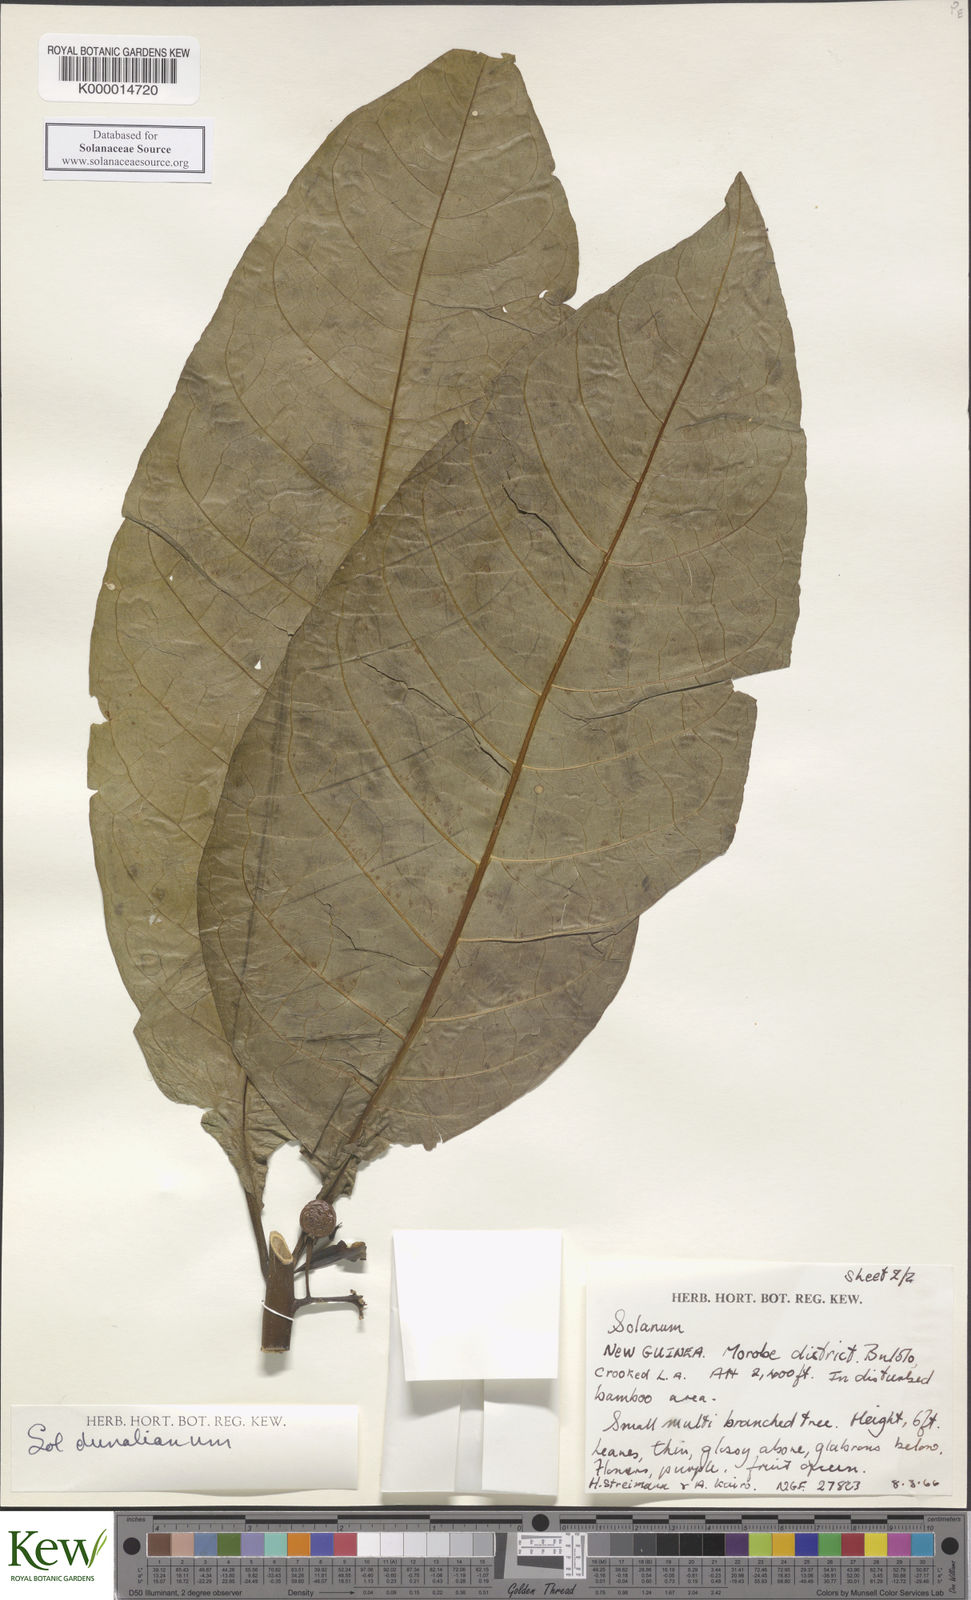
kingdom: Plantae
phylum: Tracheophyta
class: Magnoliopsida
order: Solanales
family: Solanaceae
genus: Solanum
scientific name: Solanum dunalianum
